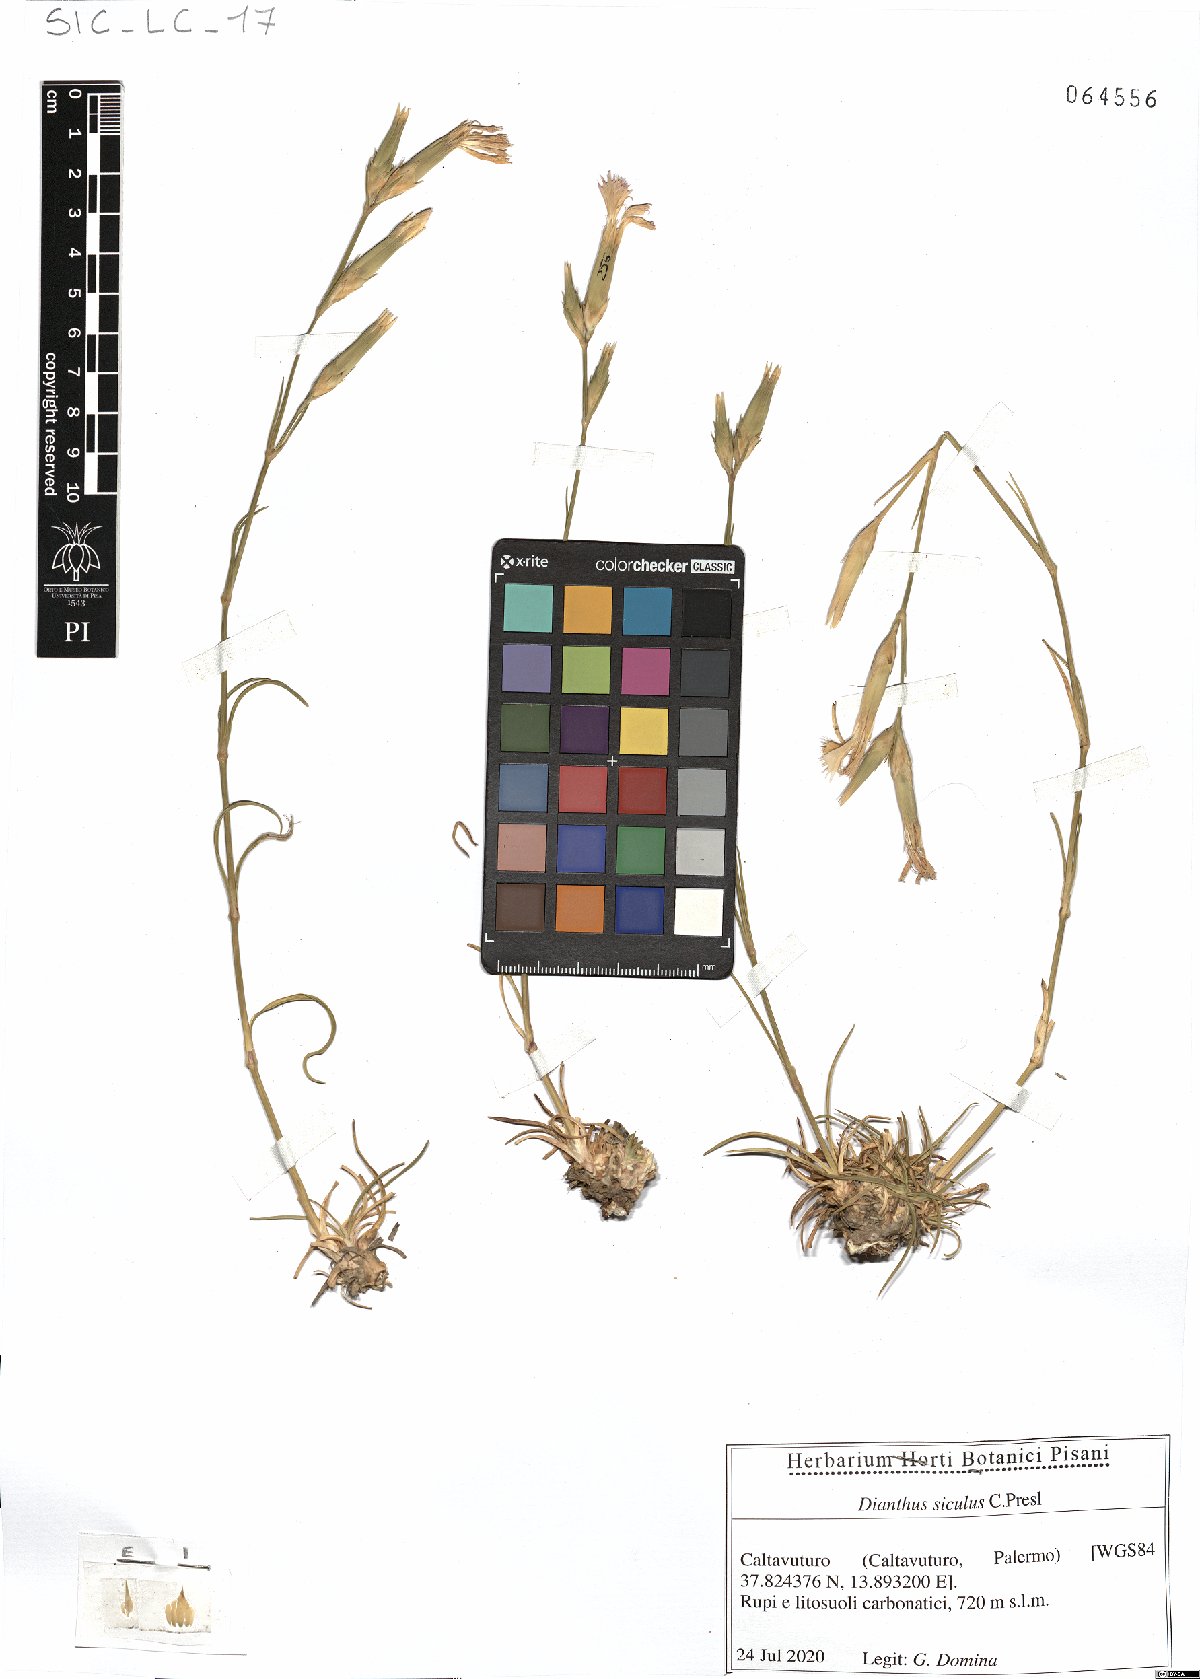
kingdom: Plantae
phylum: Tracheophyta
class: Magnoliopsida
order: Caryophyllales
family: Caryophyllaceae
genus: Dianthus
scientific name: Dianthus siculus
